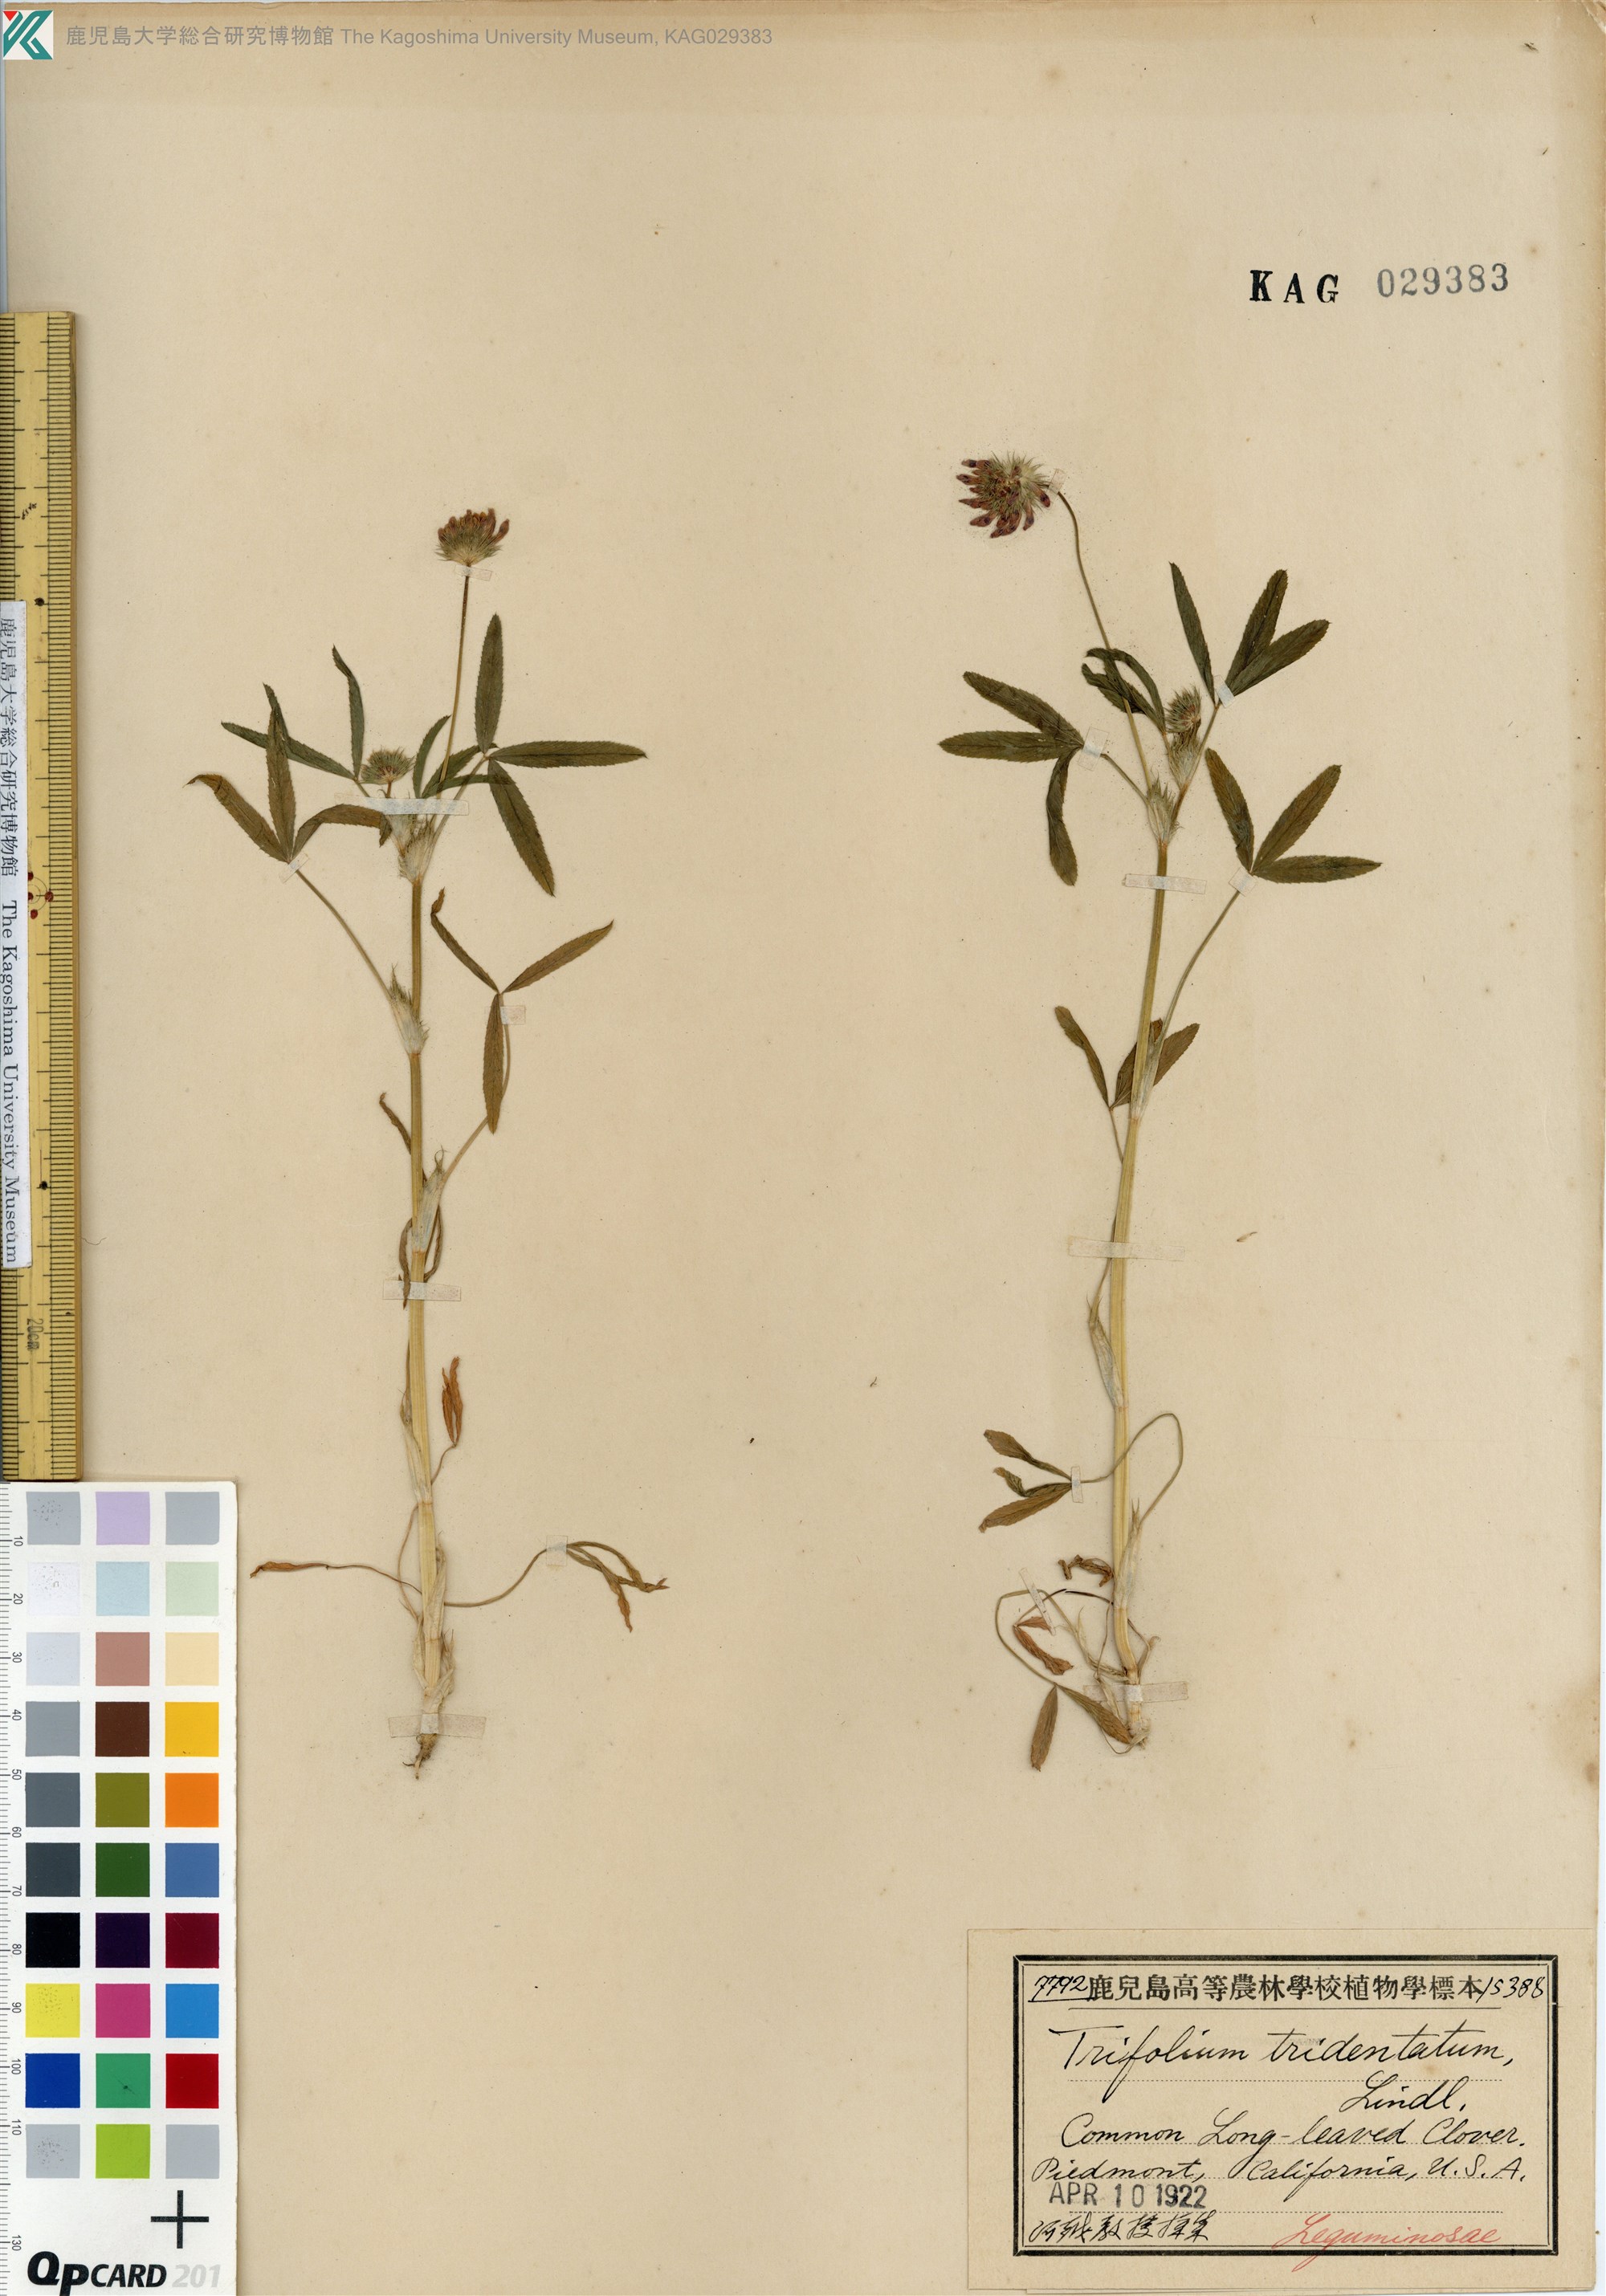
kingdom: Plantae
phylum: Tracheophyta
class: Magnoliopsida
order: Fabales
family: Fabaceae
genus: Trifolium
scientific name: Trifolium willdenovii
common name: Tomcat clover
